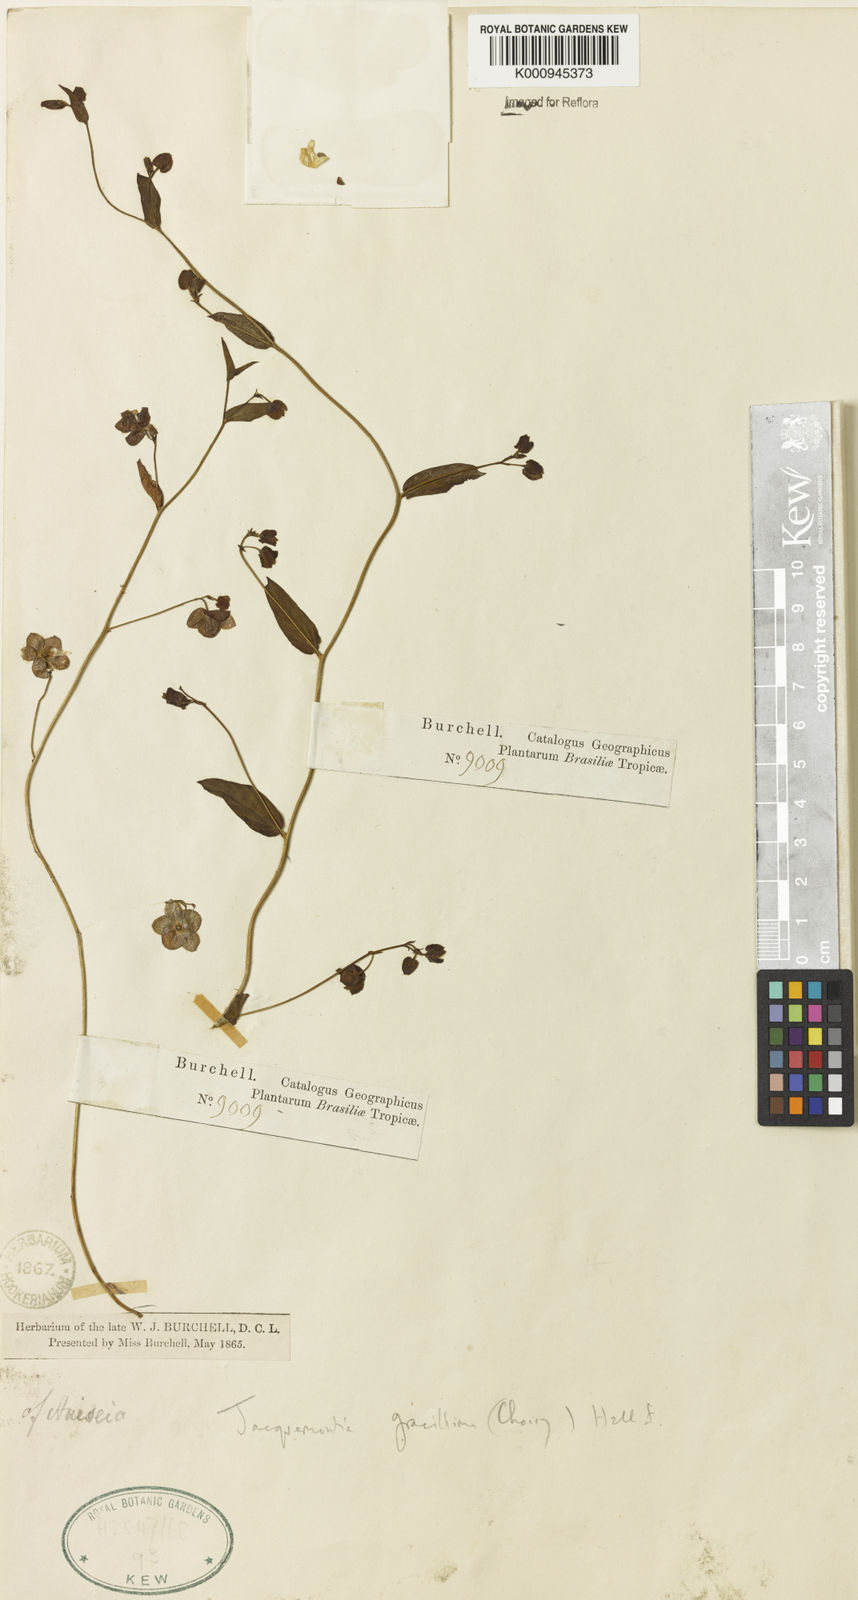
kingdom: Plantae
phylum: Tracheophyta
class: Magnoliopsida
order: Solanales
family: Convolvulaceae
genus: Jacquemontia
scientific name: Jacquemontia gracillima
